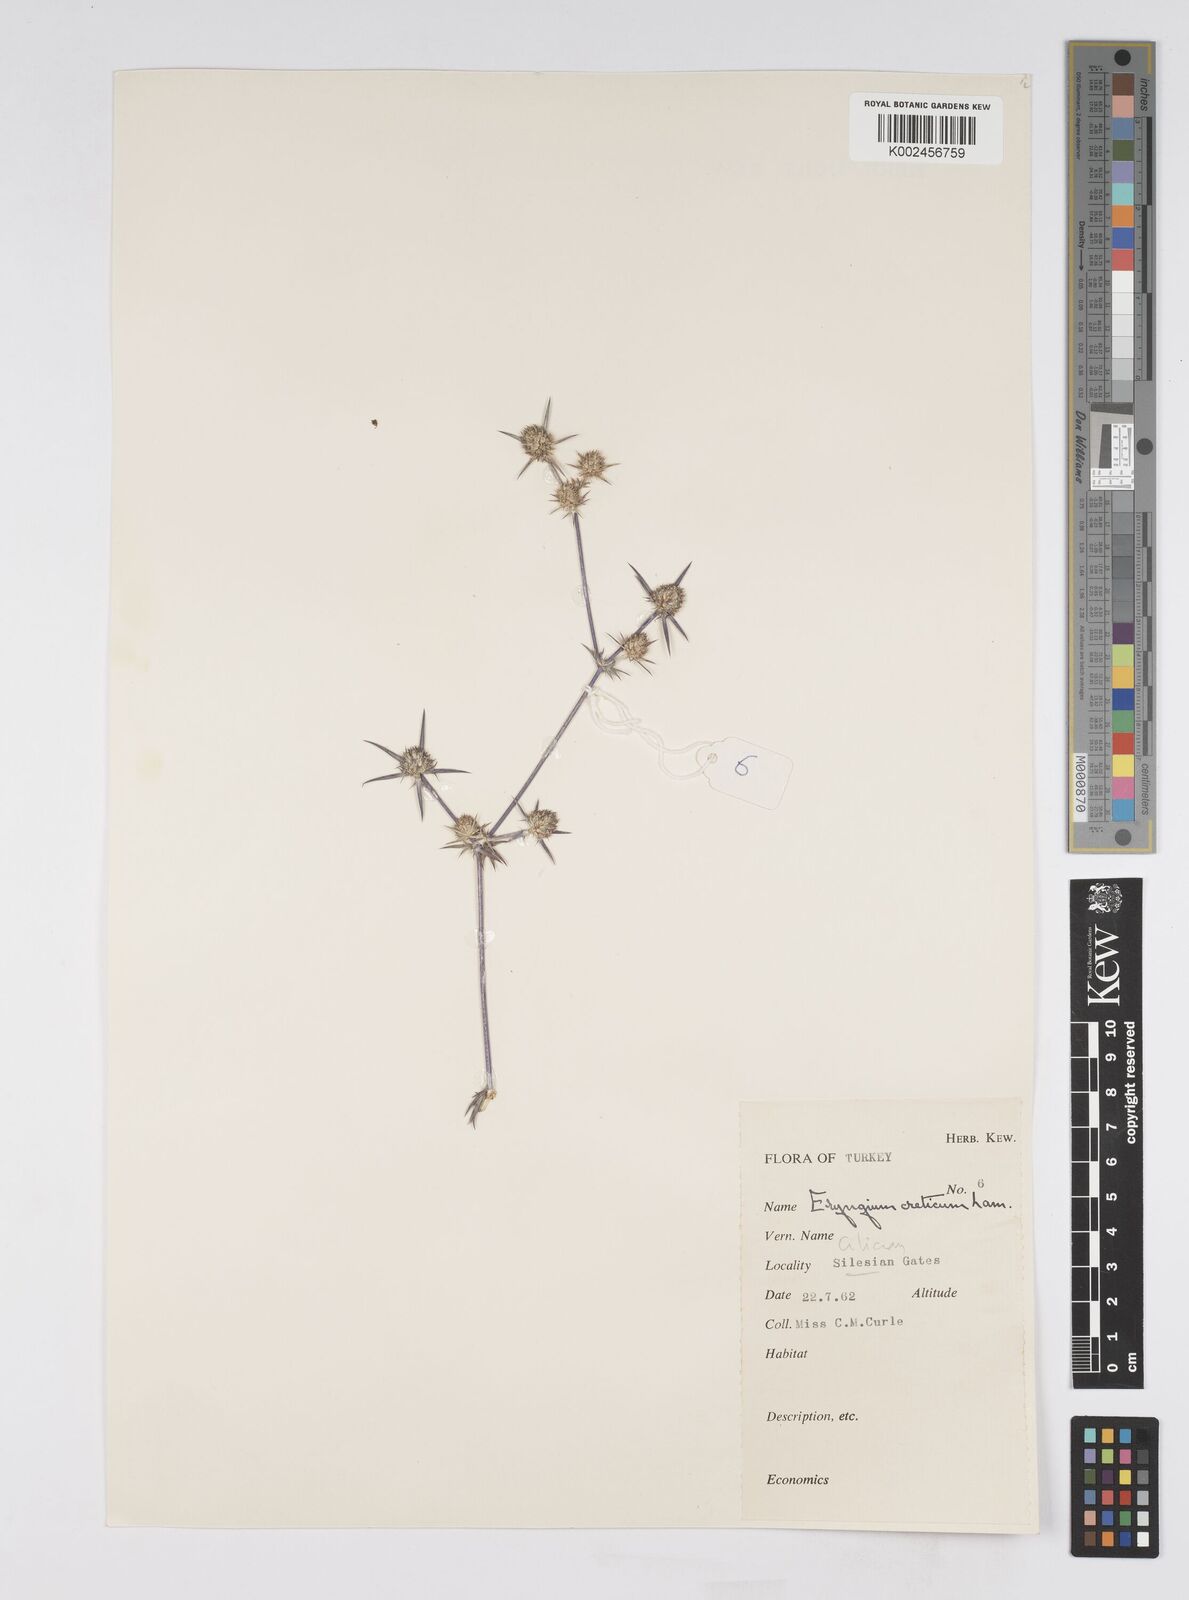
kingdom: Plantae
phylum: Tracheophyta
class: Magnoliopsida
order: Apiales
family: Apiaceae
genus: Eryngium
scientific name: Eryngium creticum
